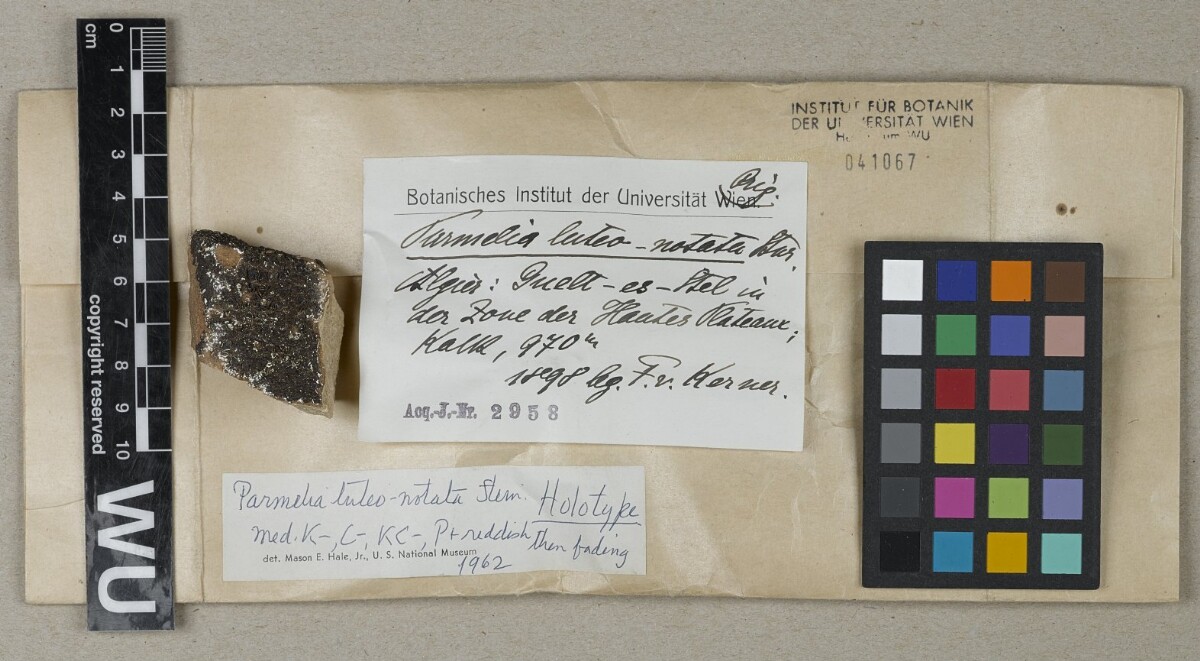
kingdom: Fungi
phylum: Ascomycota
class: Lecanoromycetes
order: Lecanorales
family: Parmeliaceae
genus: Xanthoparmelia
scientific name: Xanthoparmelia luteonotata
